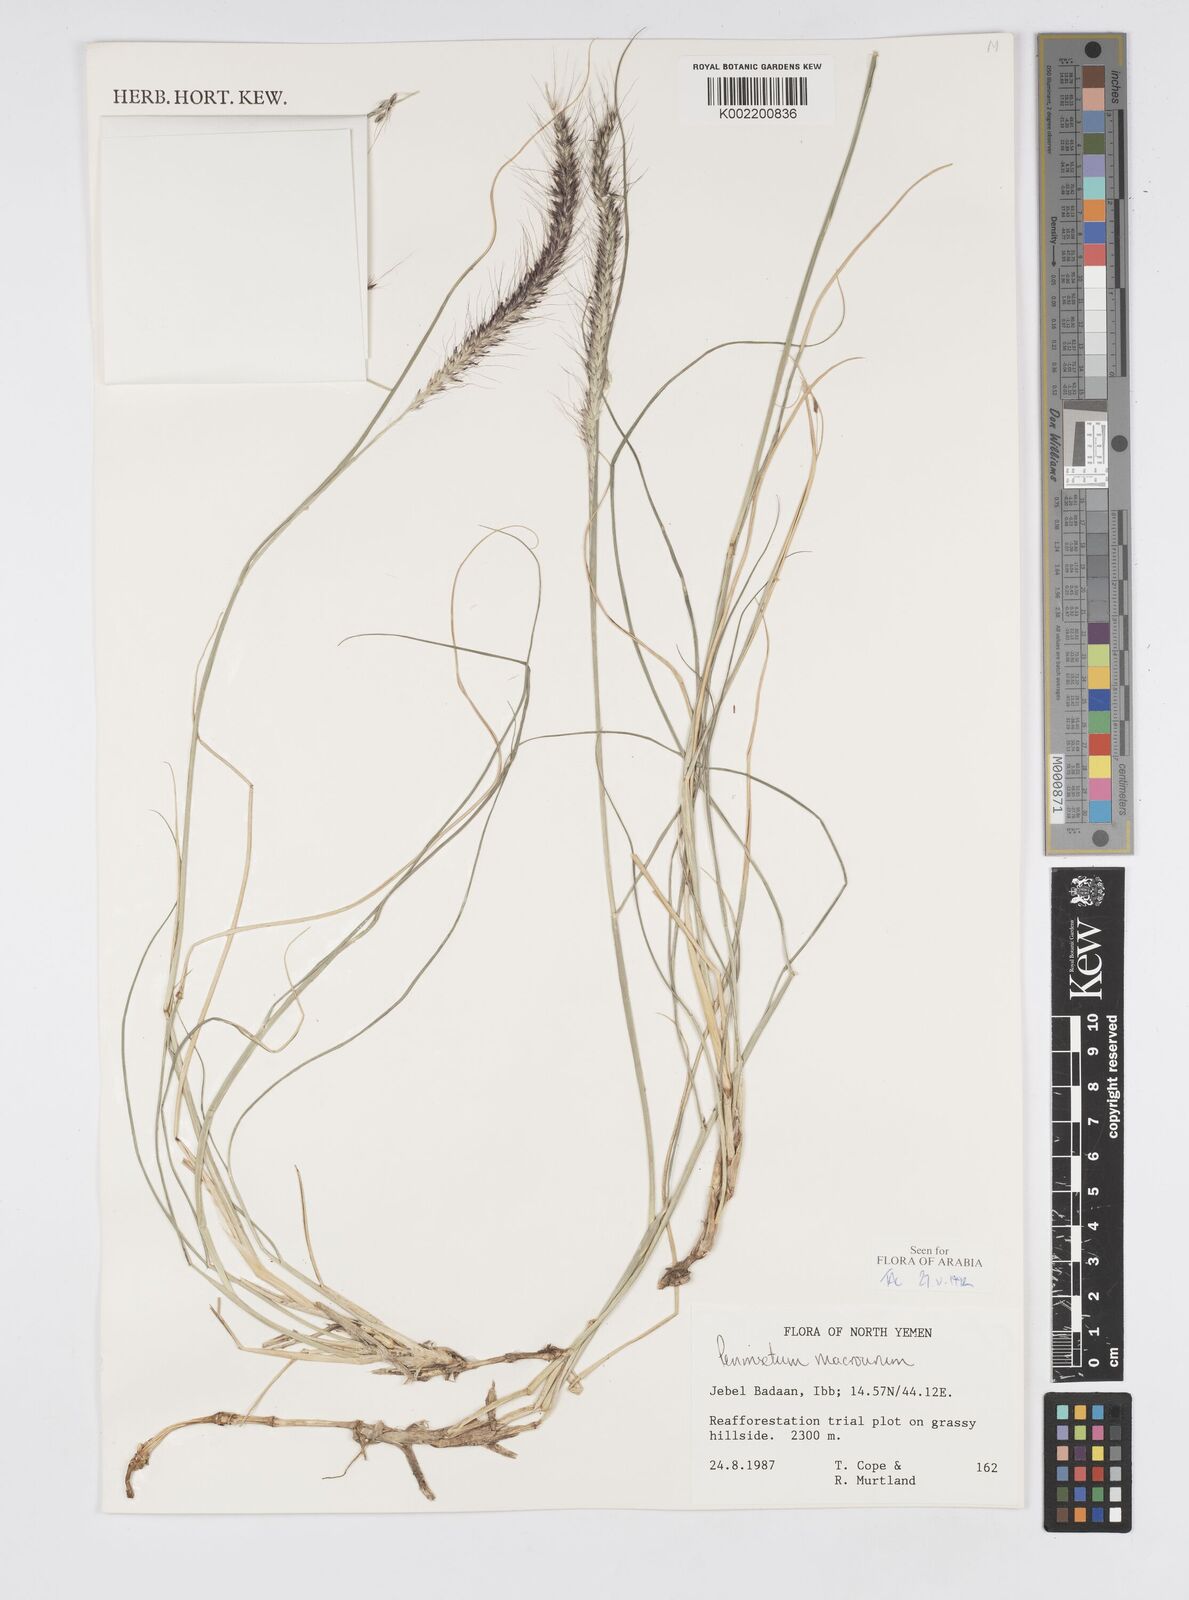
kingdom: Plantae
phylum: Tracheophyta
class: Liliopsida
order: Poales
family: Poaceae
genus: Cenchrus
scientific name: Cenchrus caudatus
